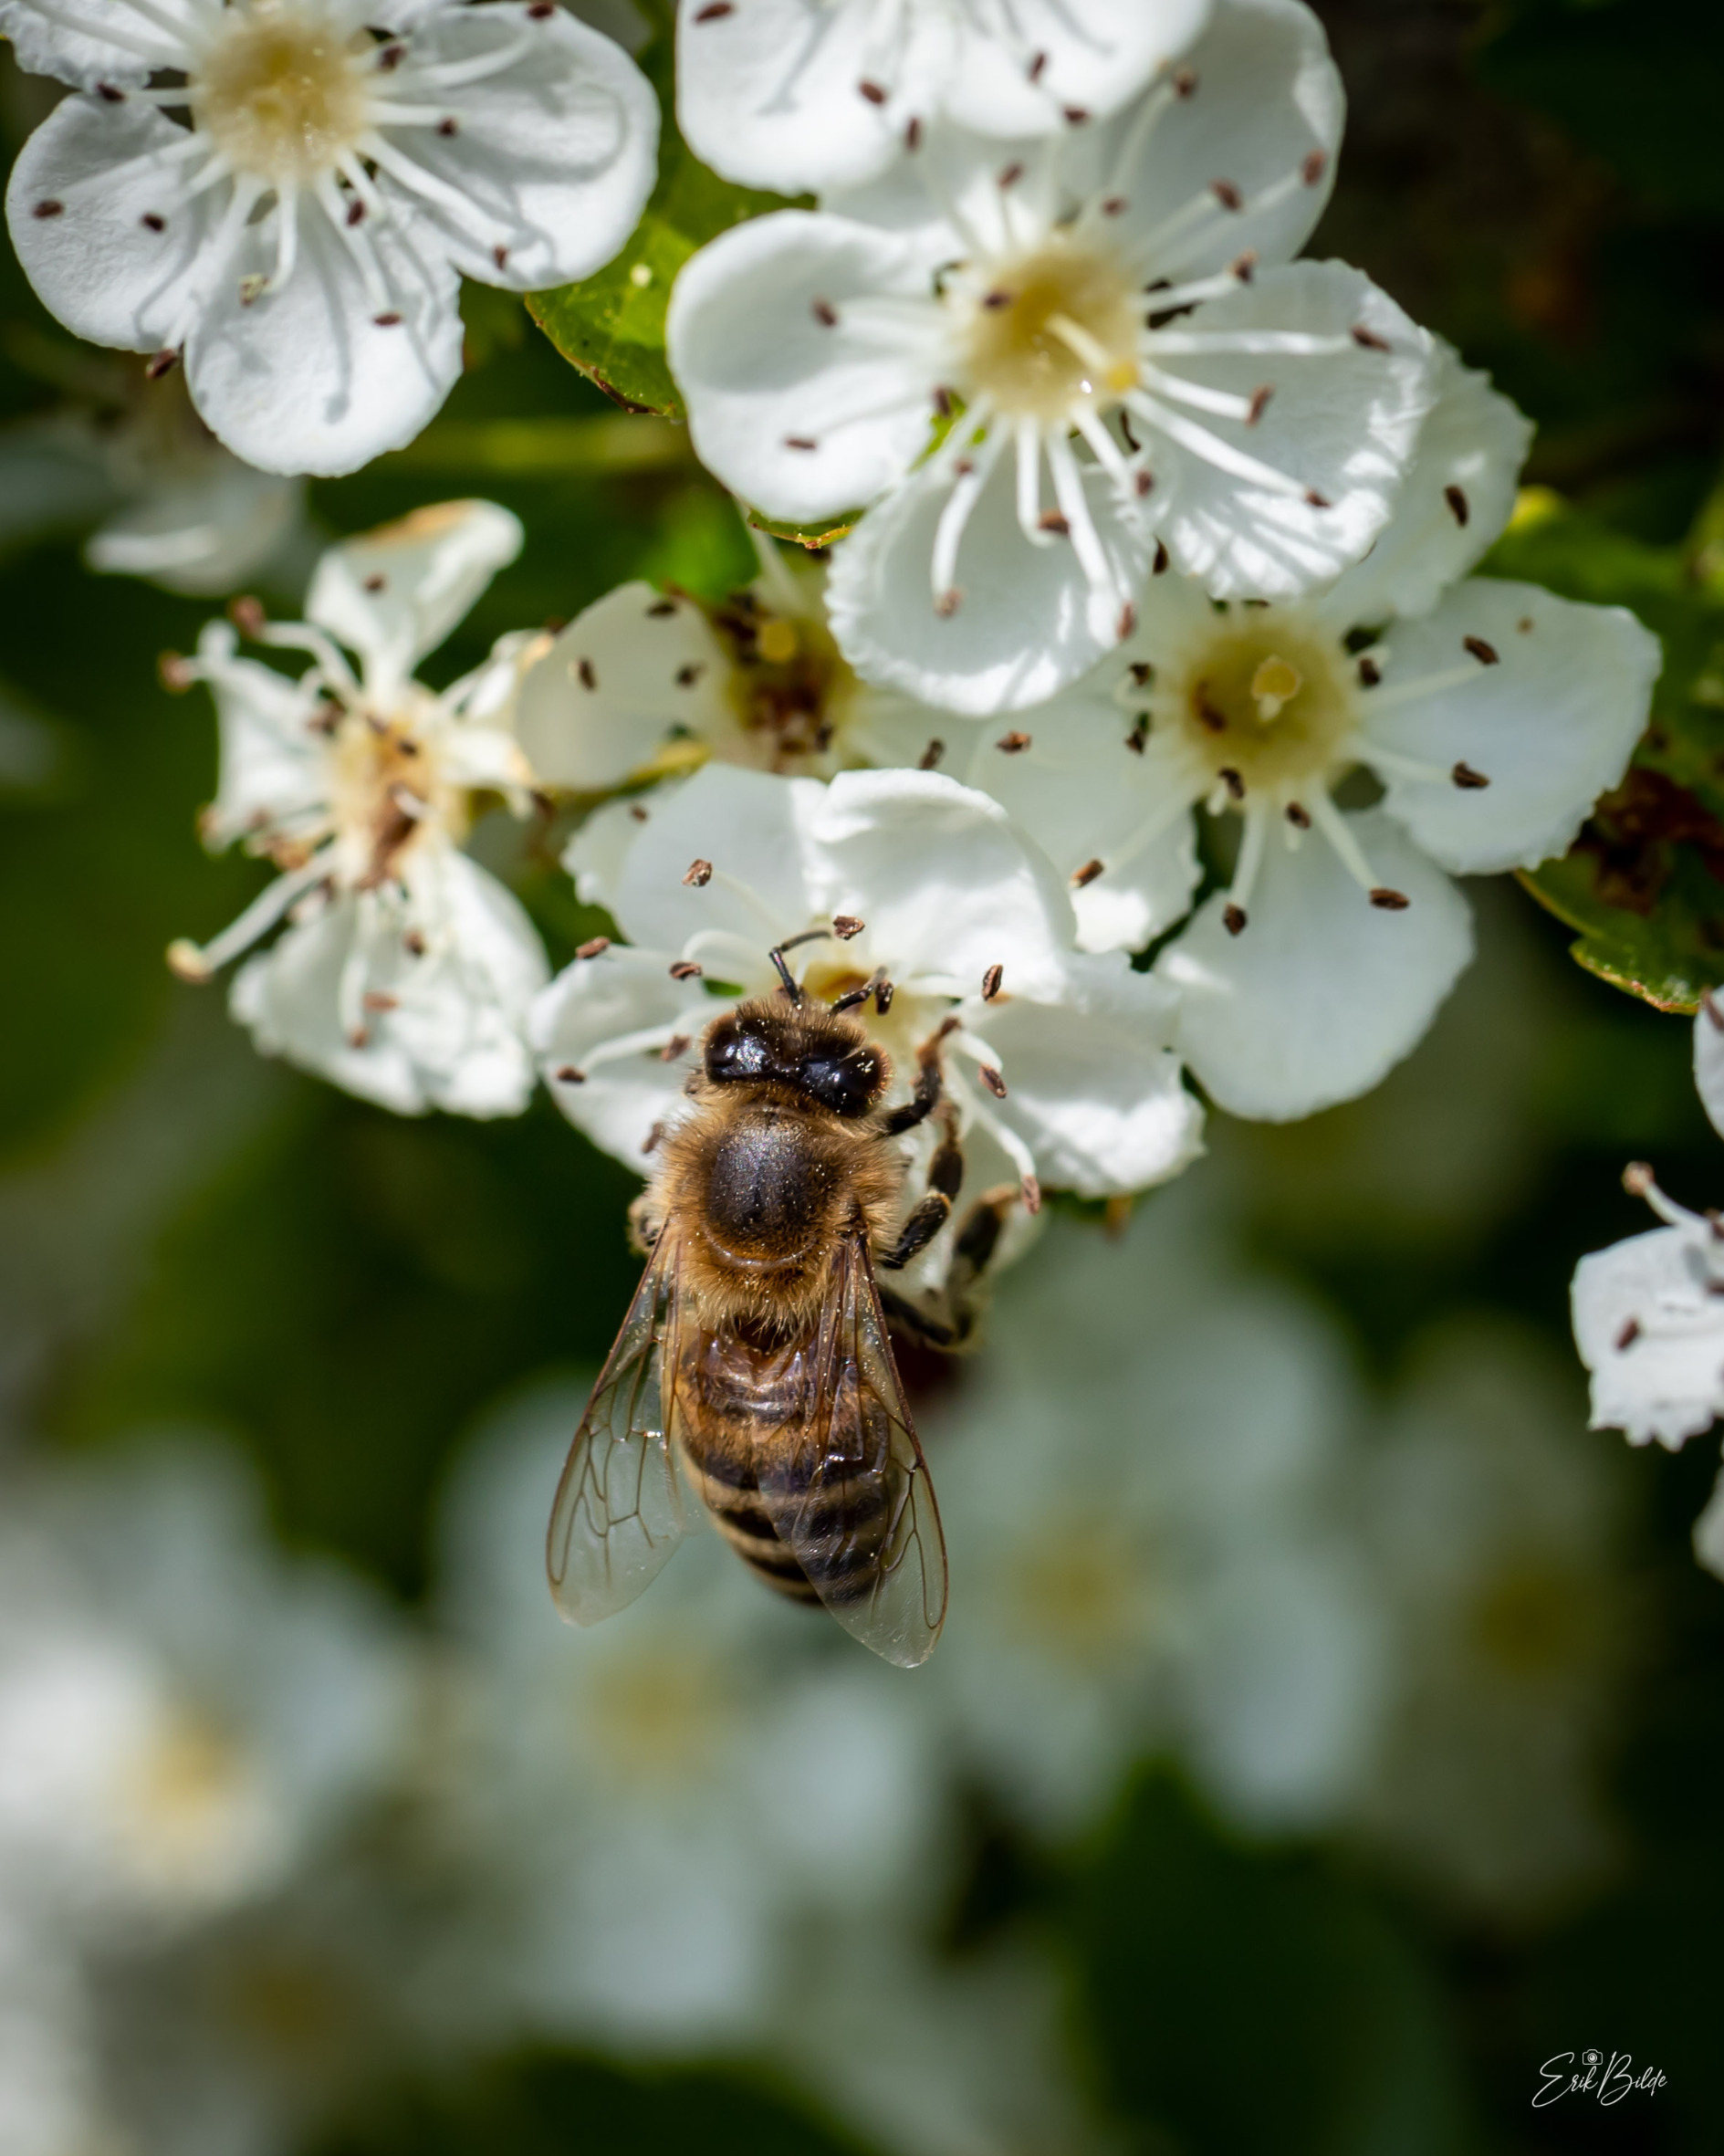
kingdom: Animalia
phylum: Arthropoda
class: Insecta
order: Hymenoptera
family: Apidae
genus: Apis
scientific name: Apis mellifera
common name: Honningbi
